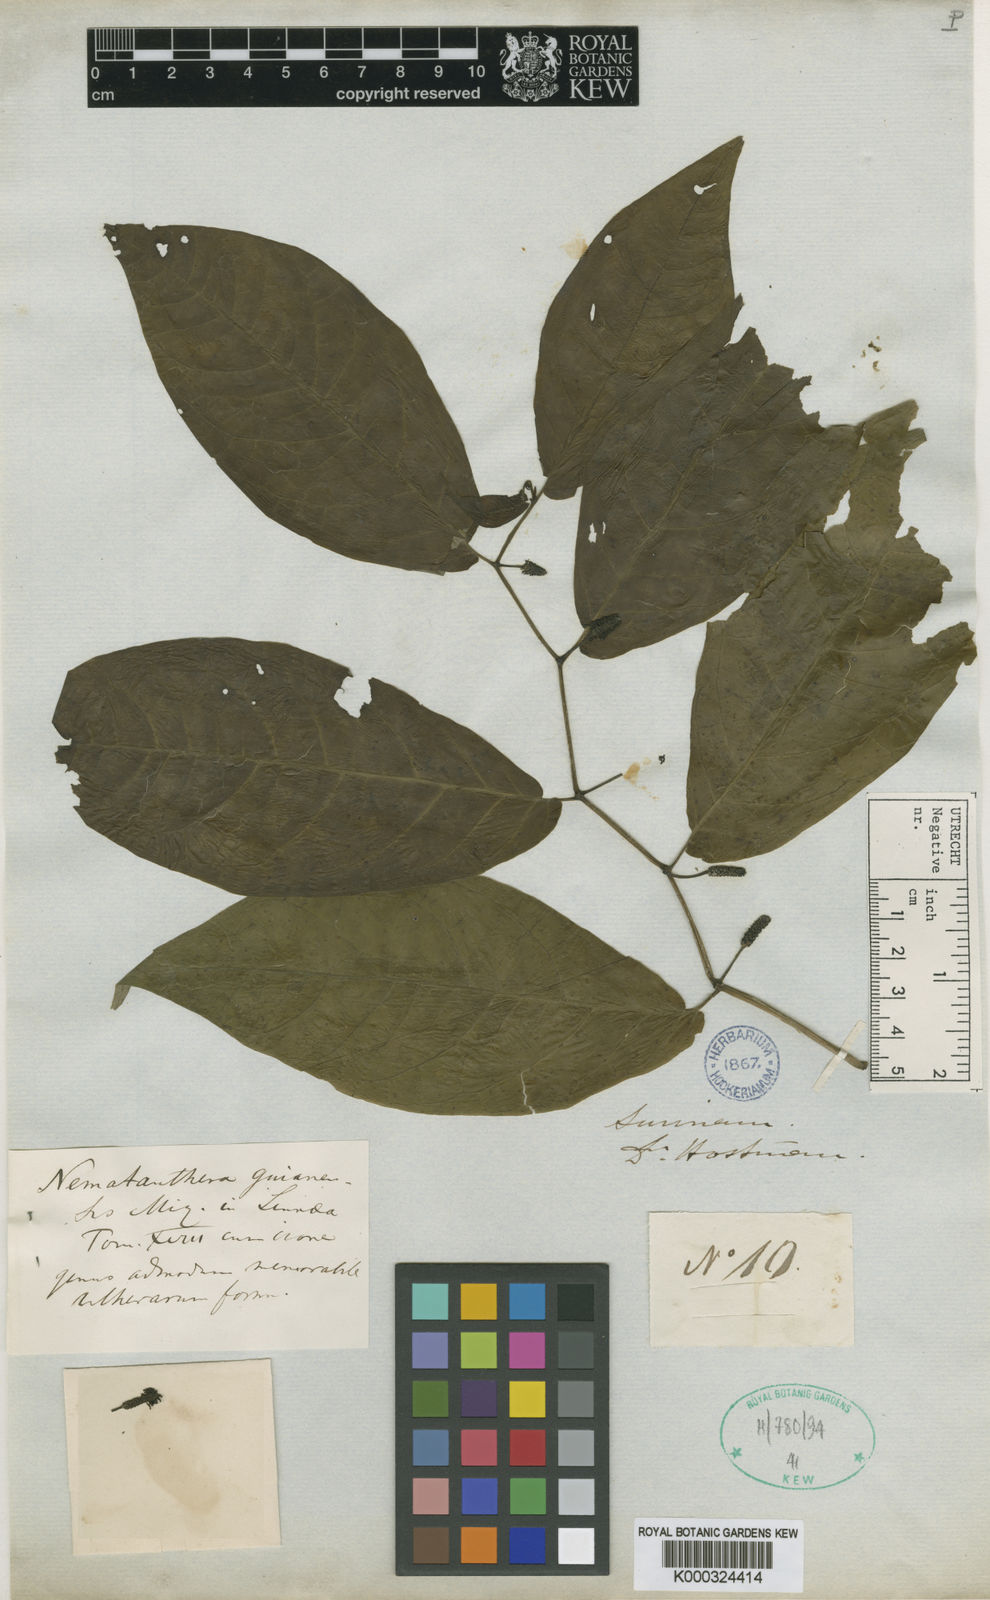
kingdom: Plantae
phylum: Tracheophyta
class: Magnoliopsida
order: Piperales
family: Piperaceae
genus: Piper
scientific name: Piper nematanthera
